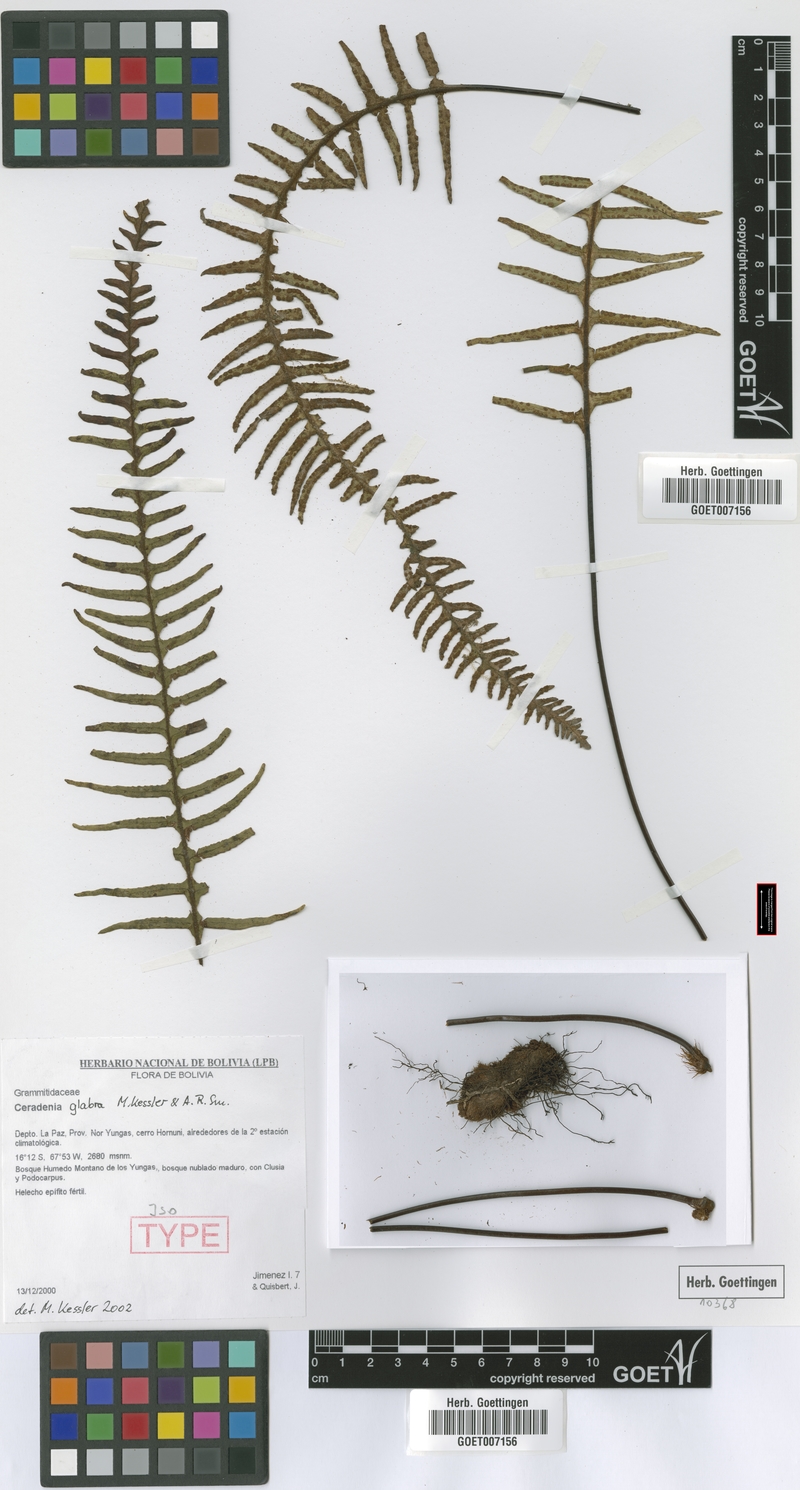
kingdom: Plantae
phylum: Tracheophyta
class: Polypodiopsida
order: Polypodiales
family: Polypodiaceae
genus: Ceradenia
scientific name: Ceradenia glabra
